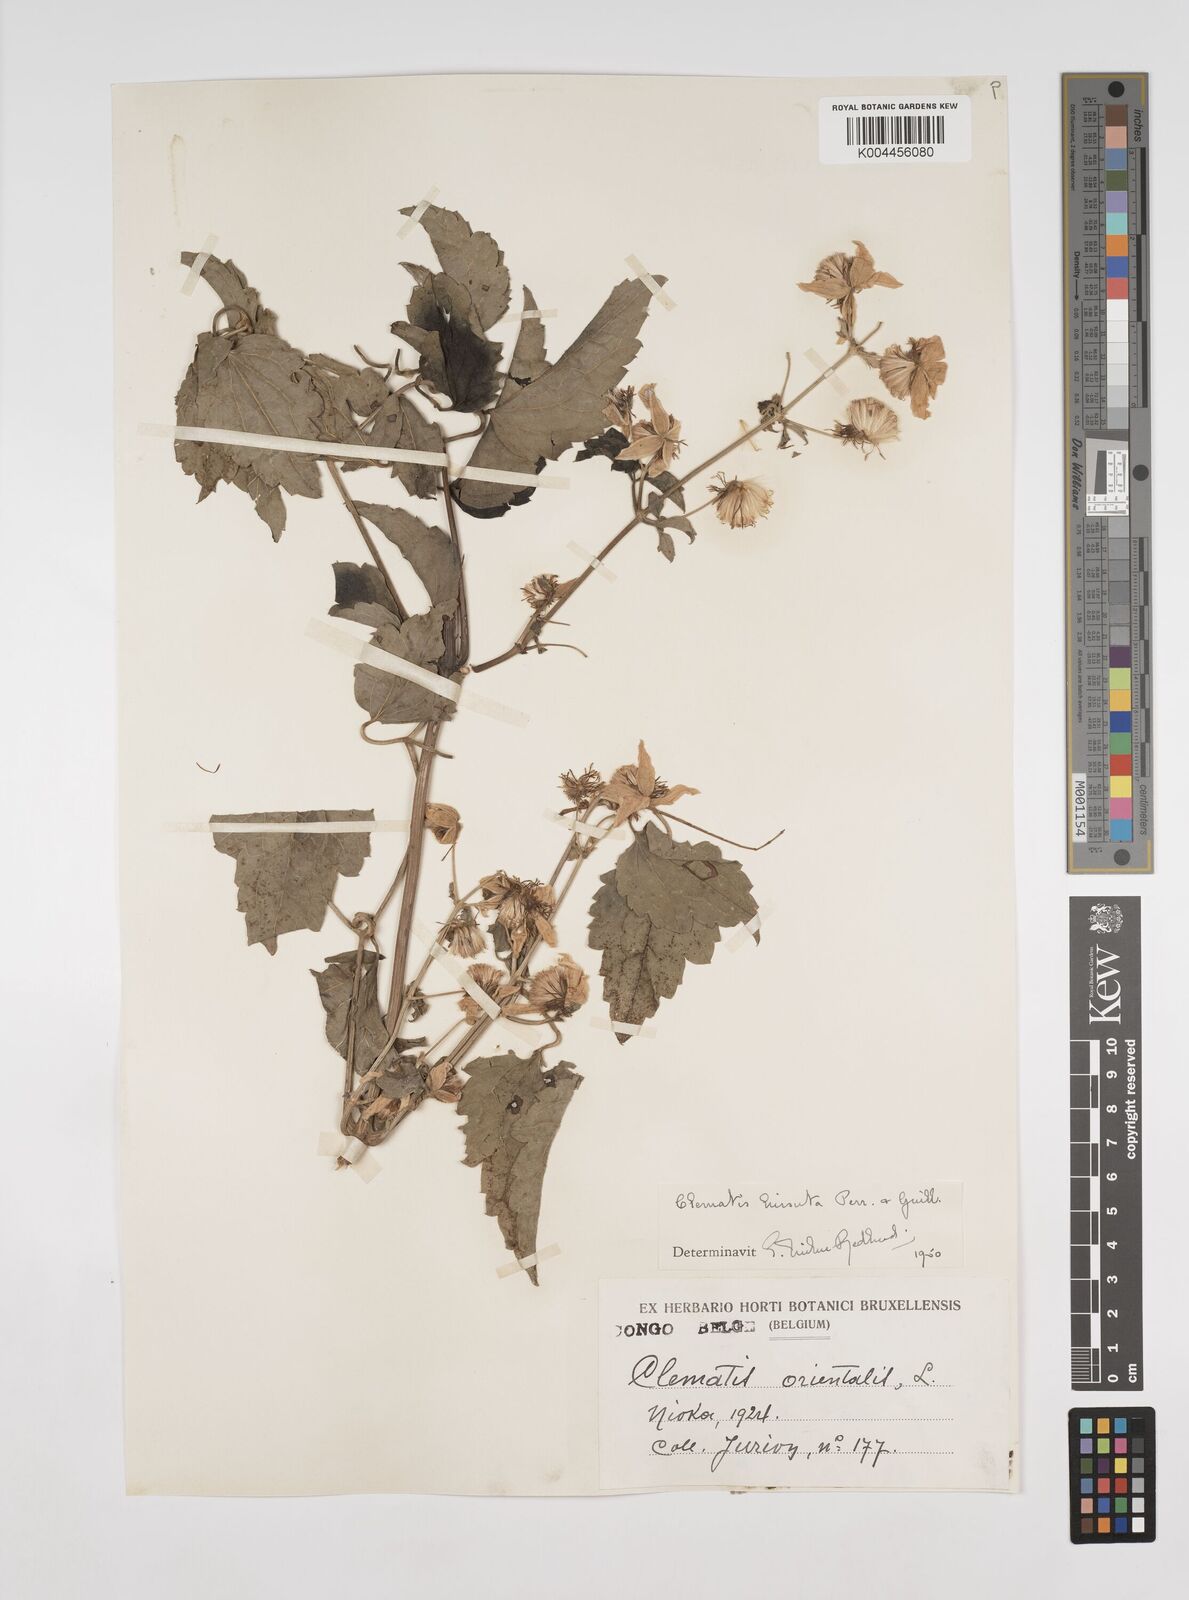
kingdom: Plantae
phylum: Tracheophyta
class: Magnoliopsida
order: Ranunculales
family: Ranunculaceae
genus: Clematis
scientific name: Clematis
